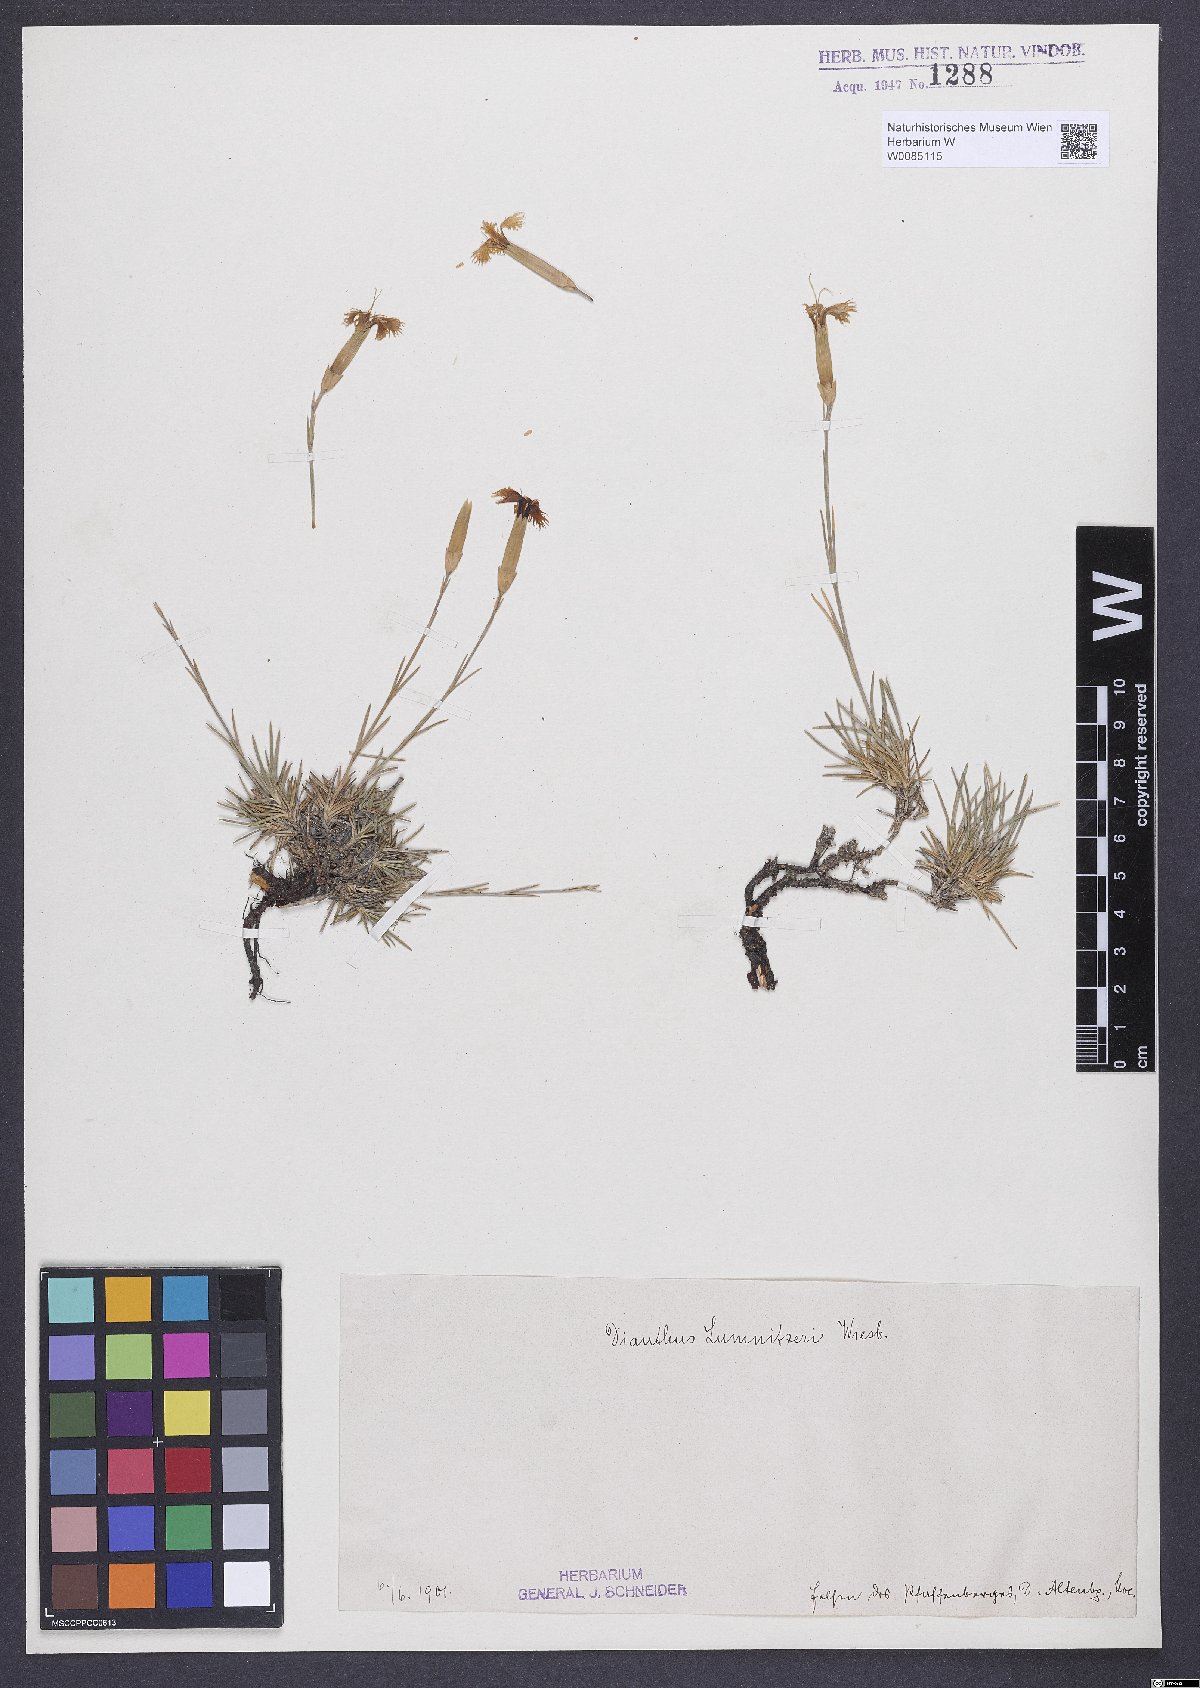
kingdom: Plantae
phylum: Tracheophyta
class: Magnoliopsida
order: Caryophyllales
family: Caryophyllaceae
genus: Dianthus
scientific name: Dianthus praecox
